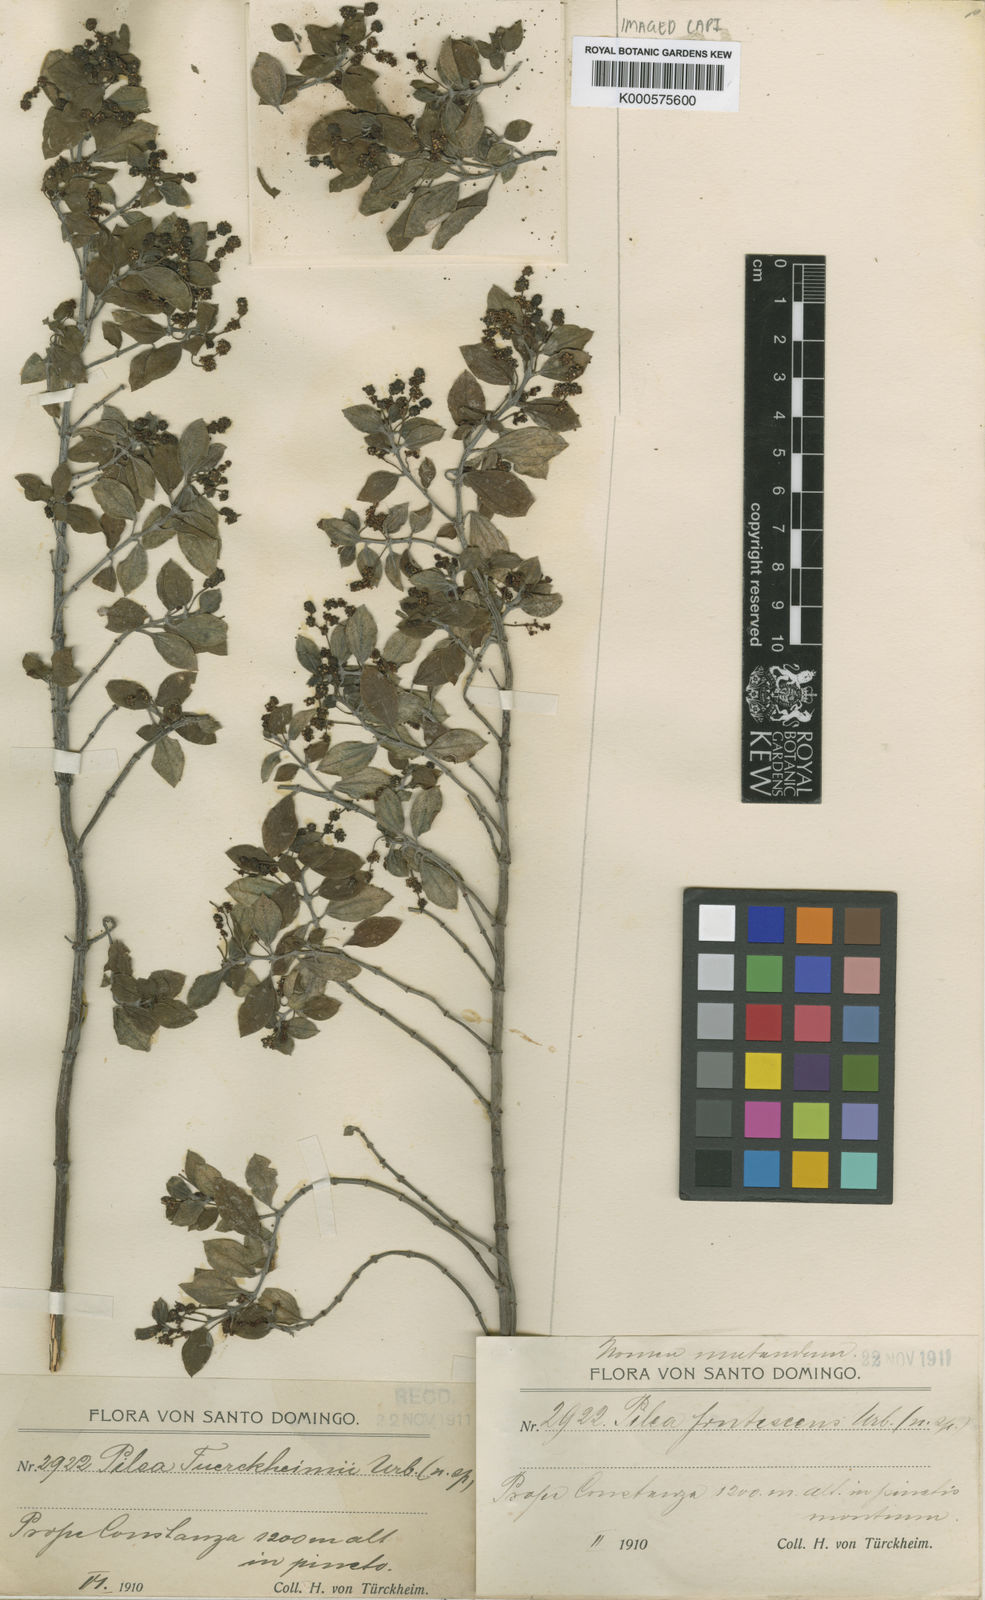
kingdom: Plantae
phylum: Tracheophyta
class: Magnoliopsida
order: Rosales
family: Urticaceae
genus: Pilea
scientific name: Pilea frutescens
